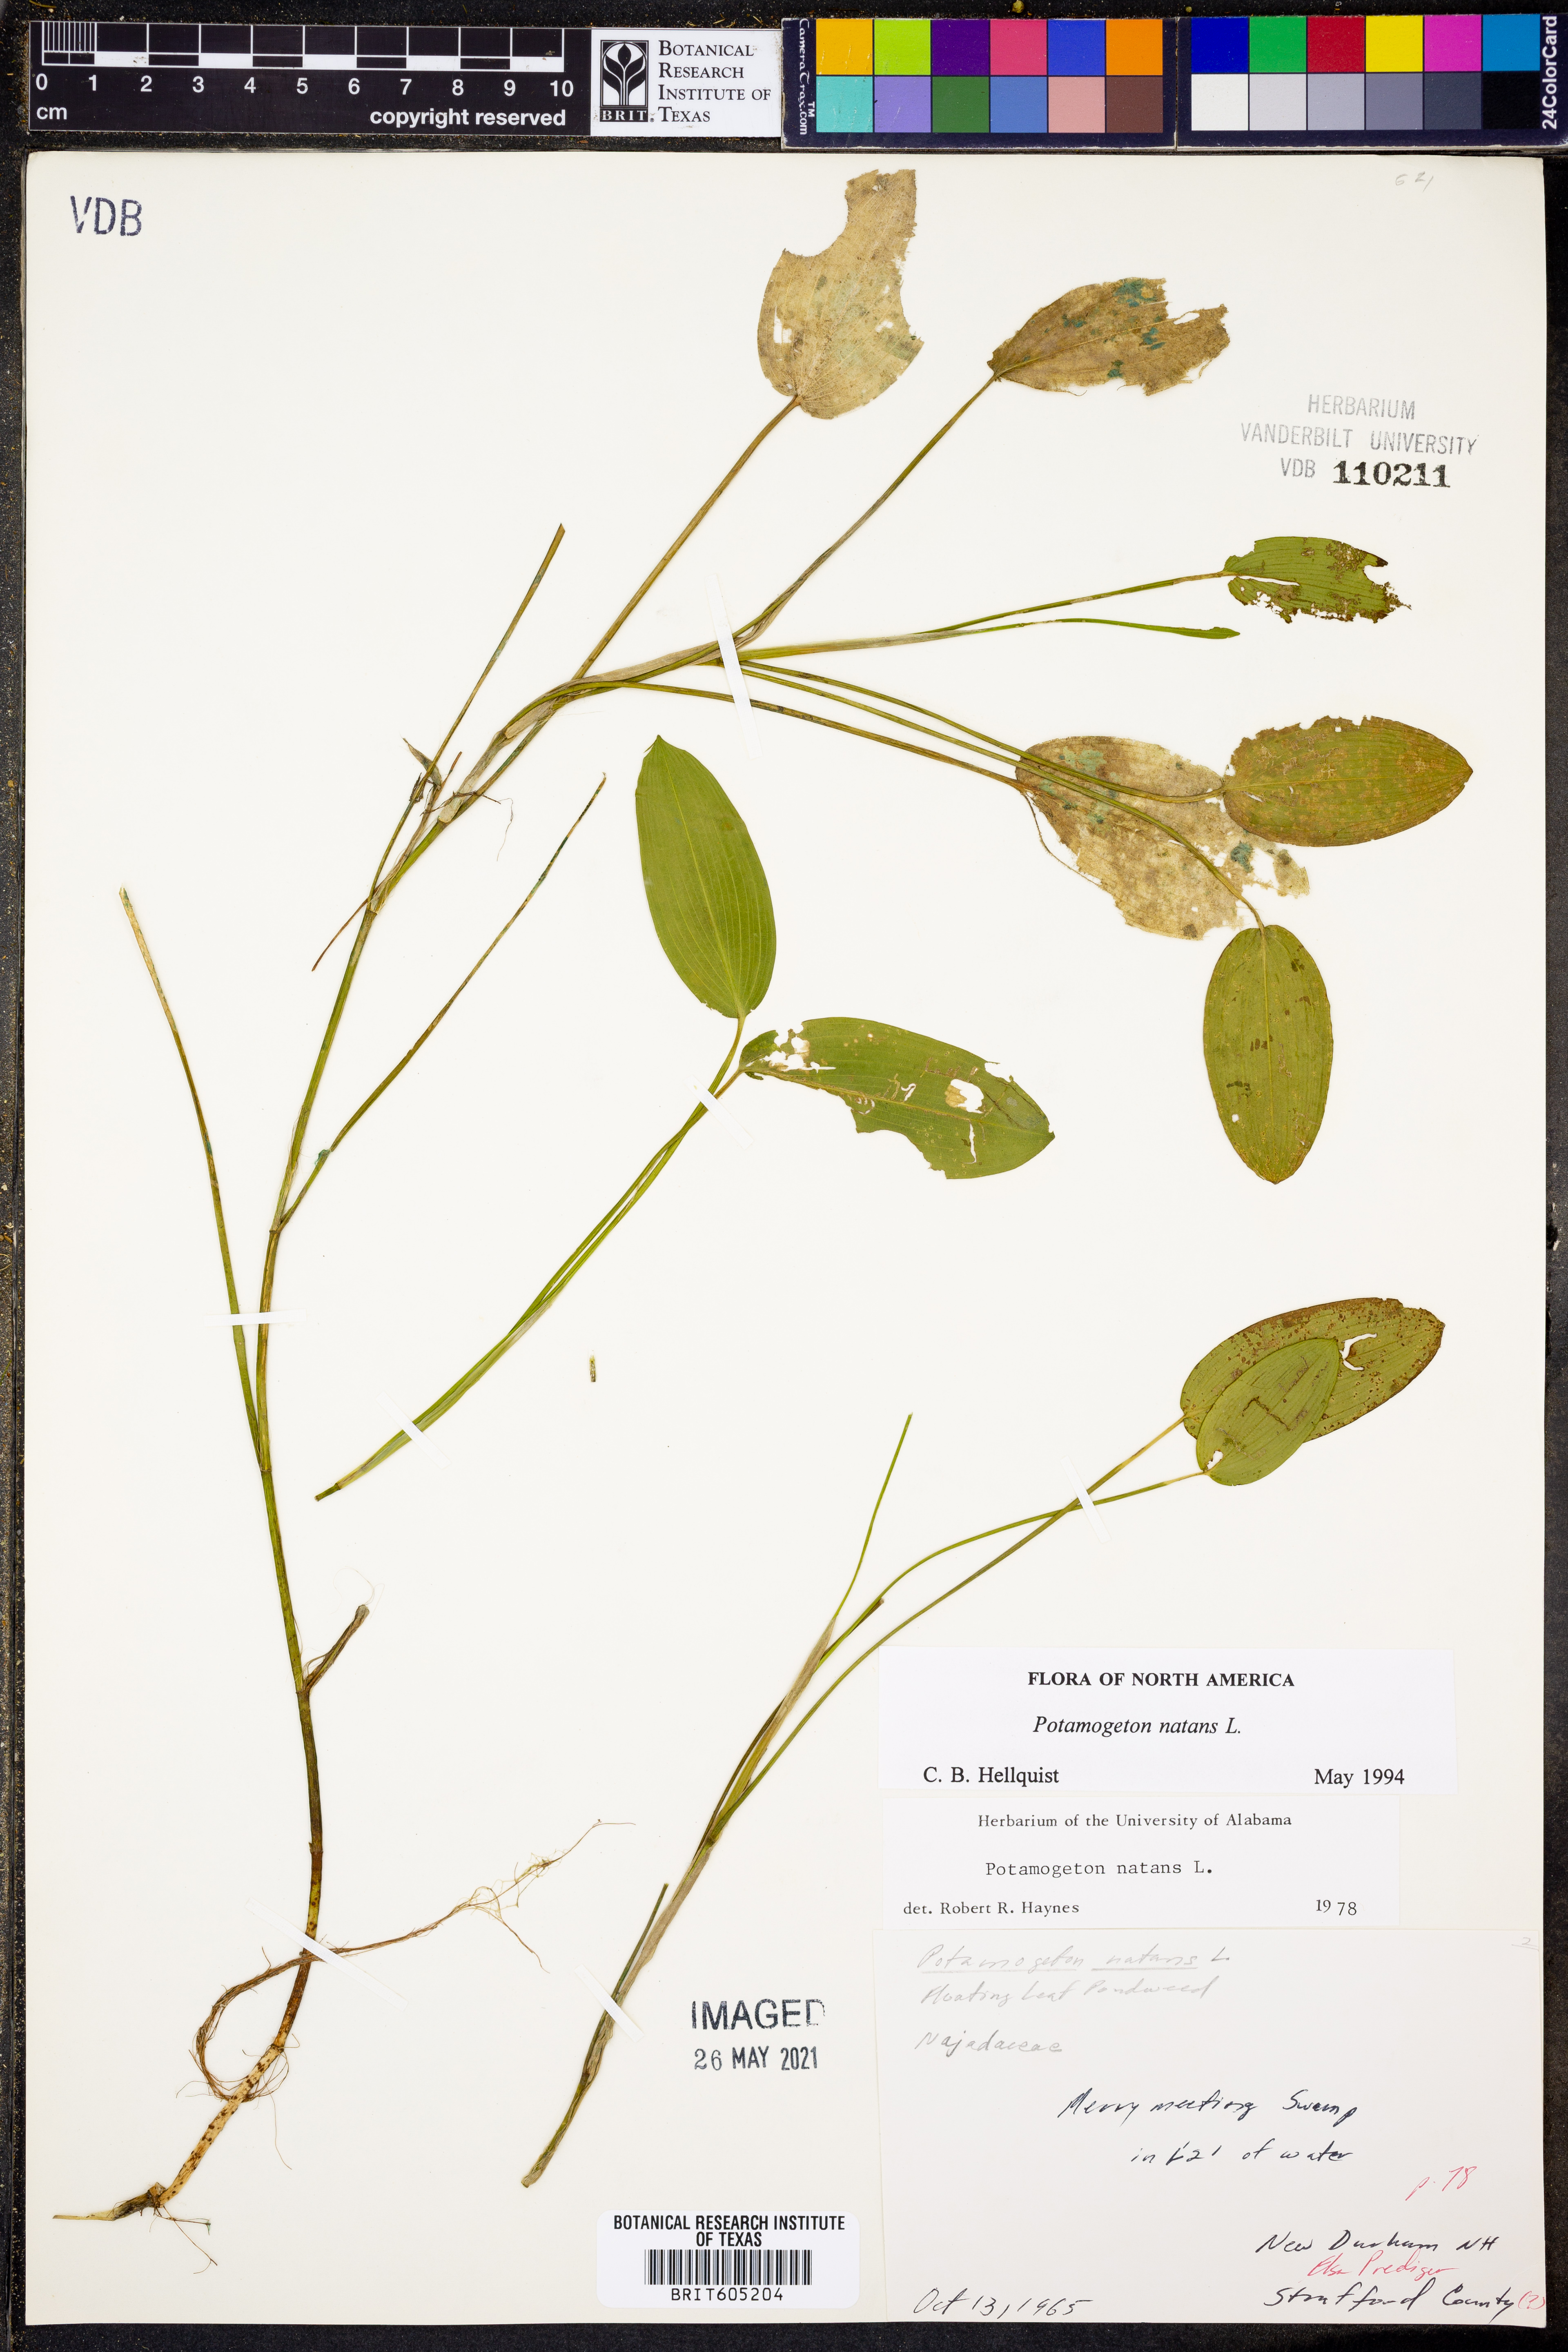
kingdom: Plantae
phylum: Tracheophyta
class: Liliopsida
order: Alismatales
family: Potamogetonaceae
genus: Potamogeton
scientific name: Potamogeton natans
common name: Broad-leaved pondweed
